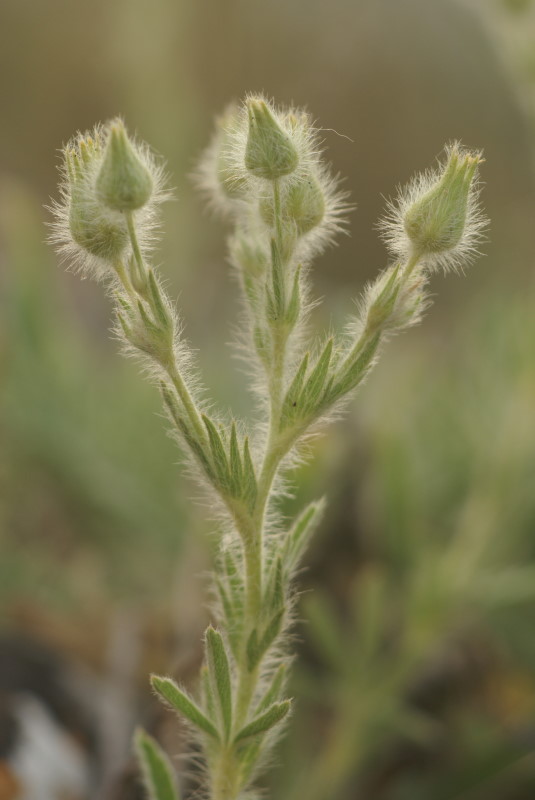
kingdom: Plantae
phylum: Tracheophyta
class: Magnoliopsida
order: Rosales
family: Rosaceae
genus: Potentilla
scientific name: Potentilla
